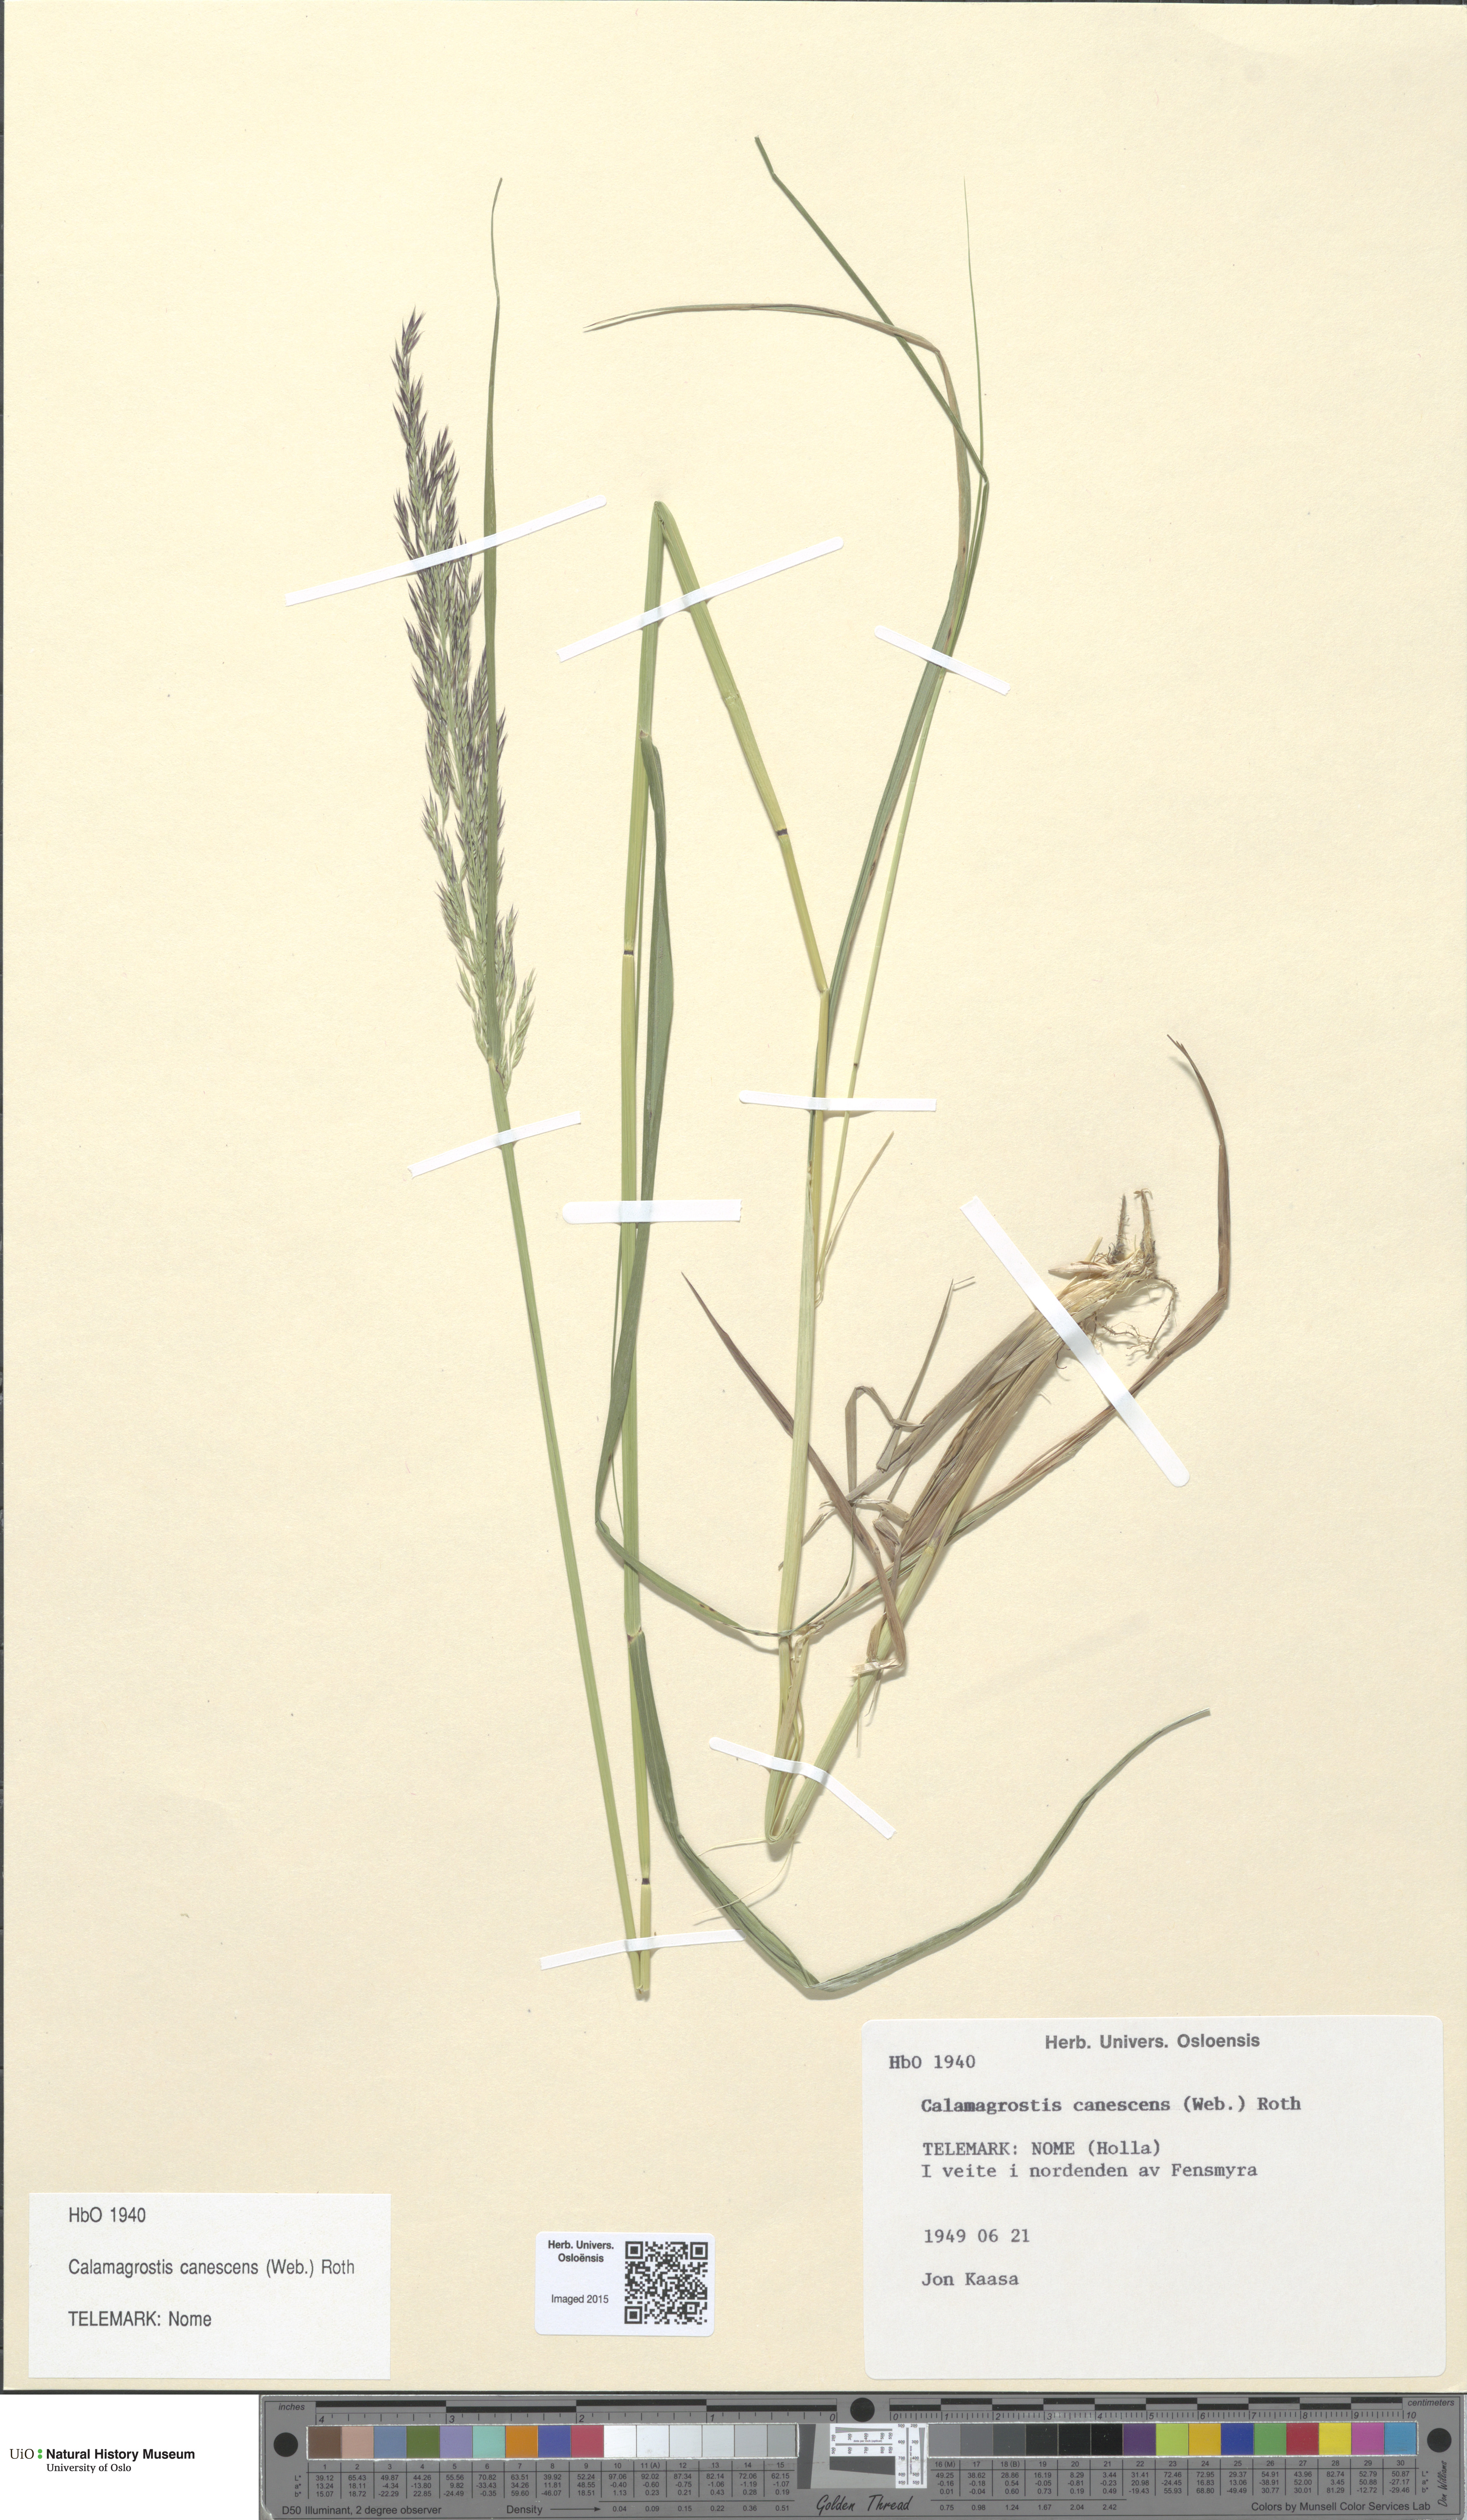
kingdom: Plantae
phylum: Tracheophyta
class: Liliopsida
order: Poales
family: Poaceae
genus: Calamagrostis
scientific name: Calamagrostis canescens
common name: Purple small-reed
